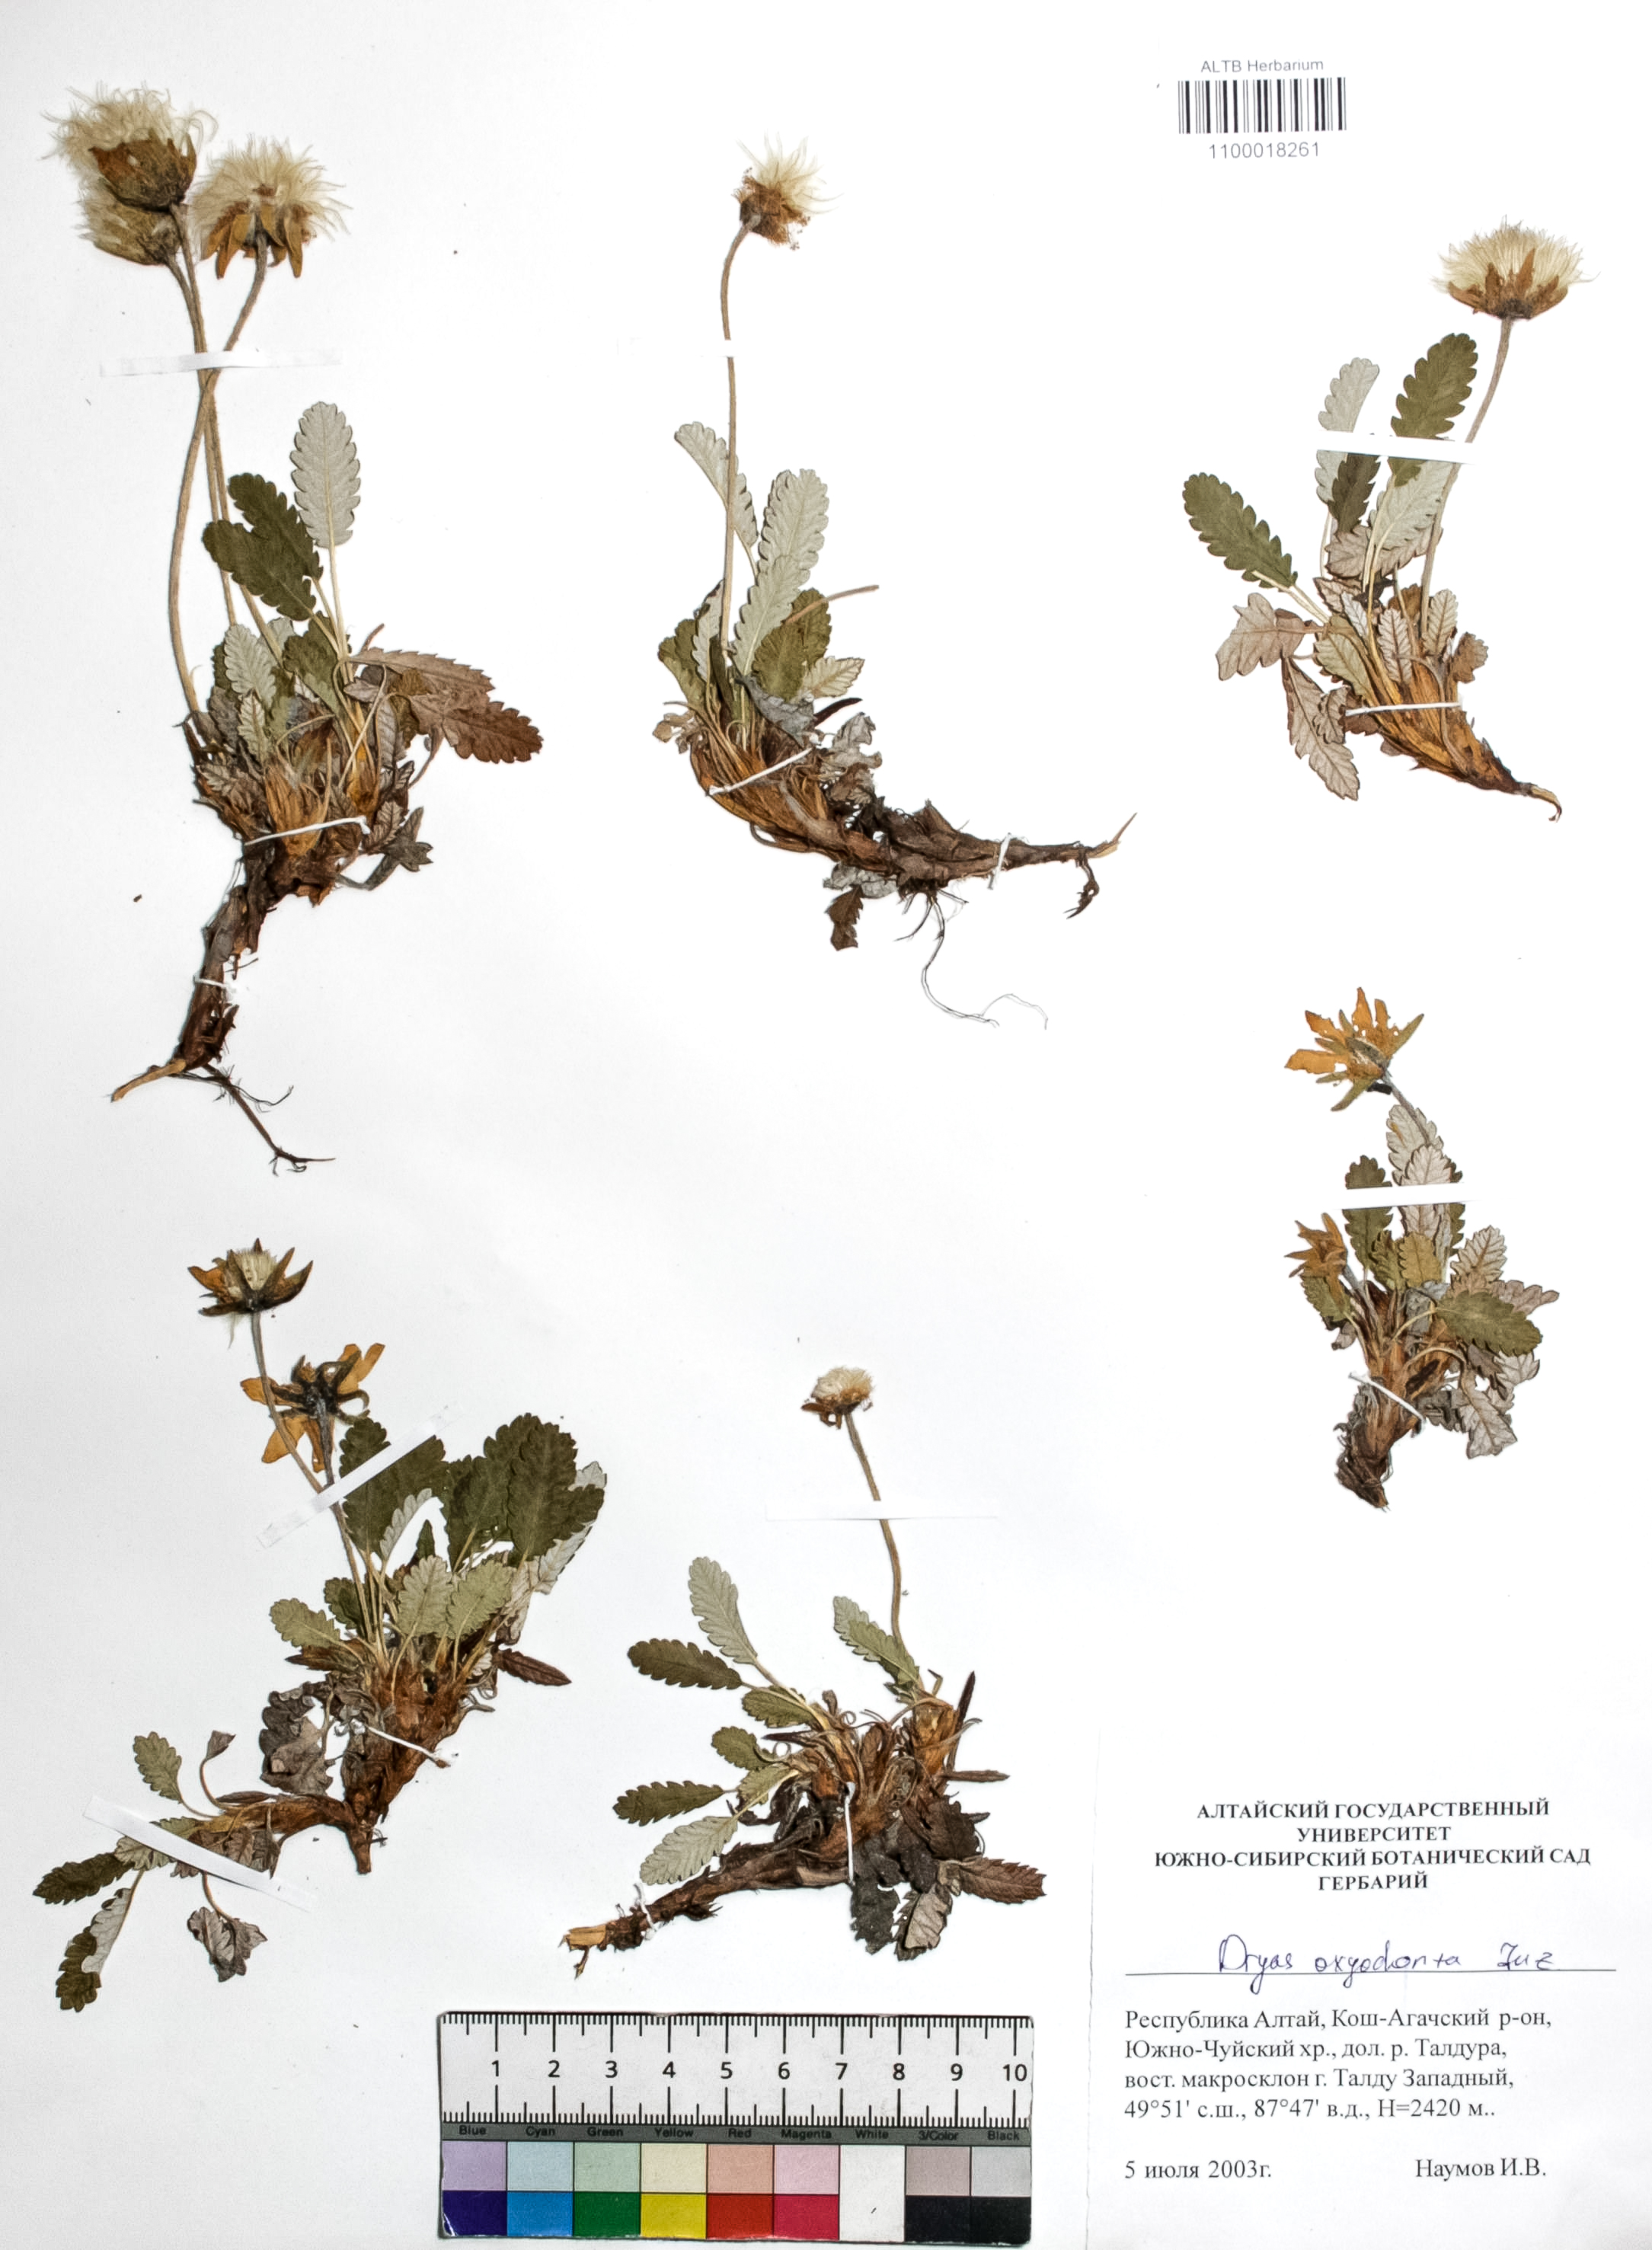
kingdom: Plantae
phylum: Tracheophyta
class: Magnoliopsida
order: Rosales
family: Rosaceae
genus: Dryas
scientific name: Dryas octopetala
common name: Eight-petal mountain-avens
